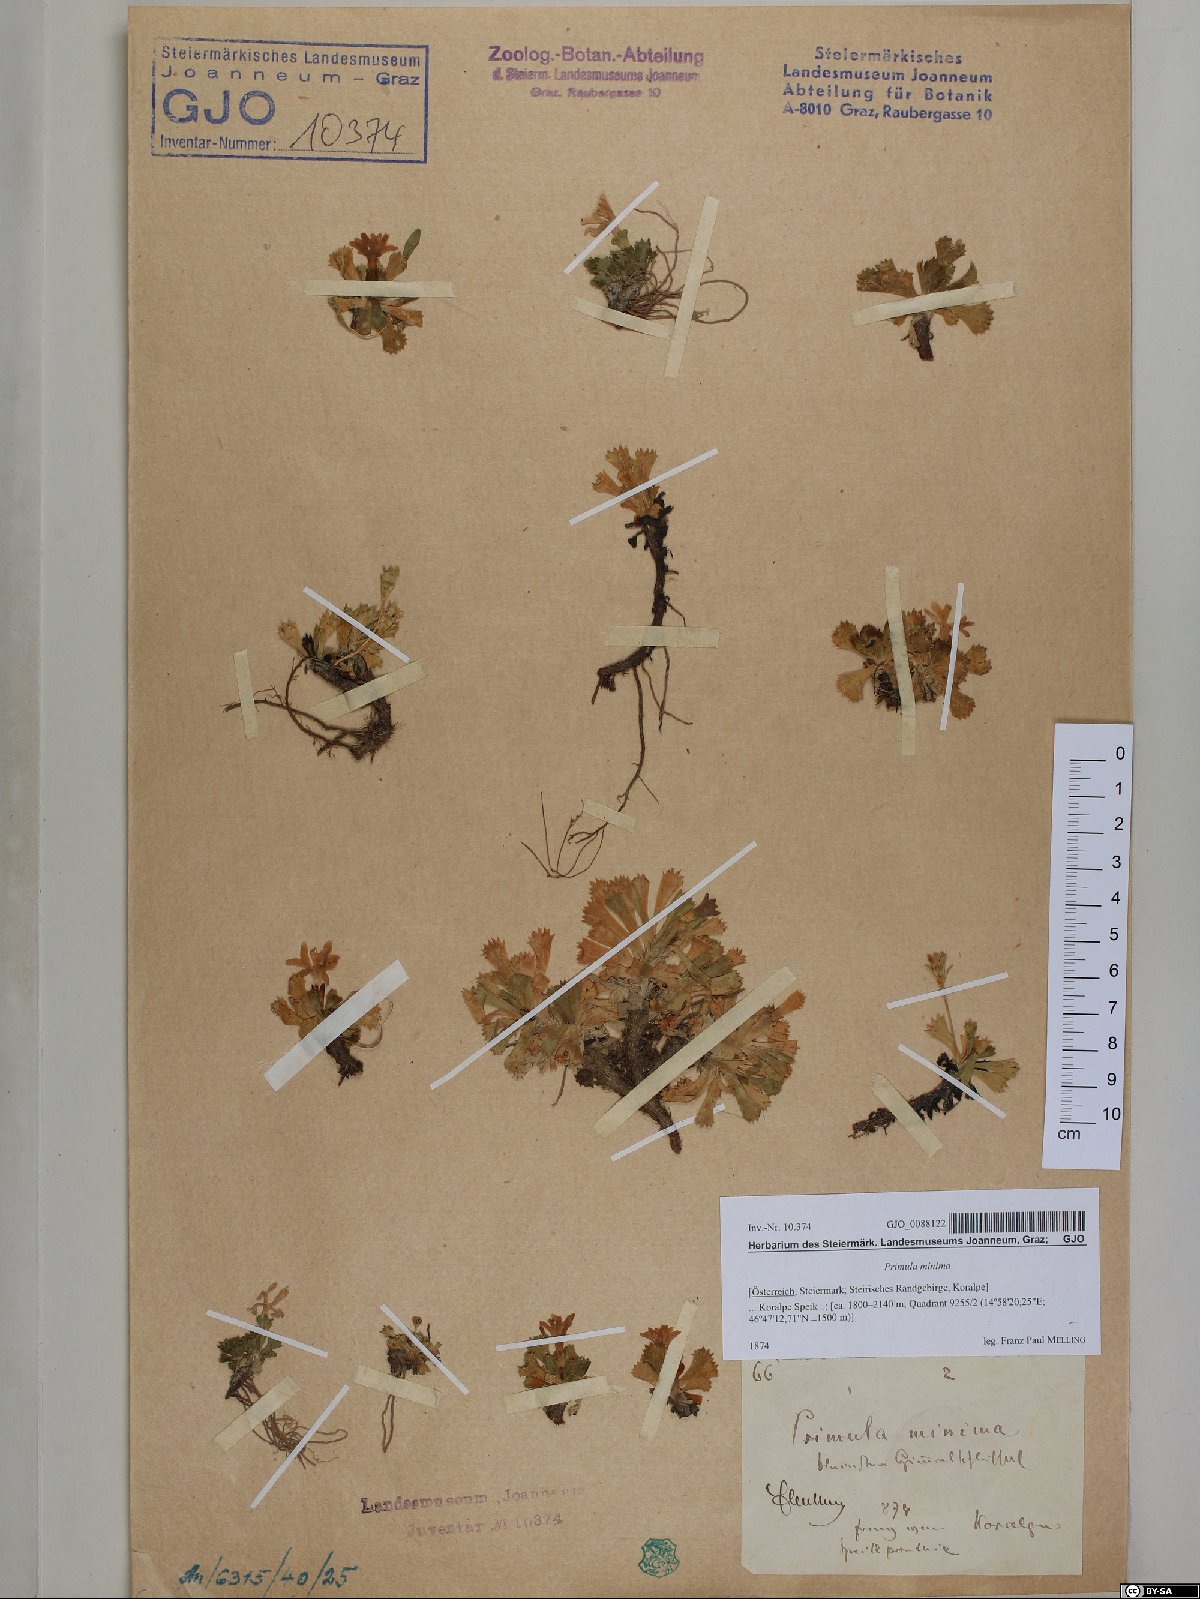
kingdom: Plantae
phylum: Tracheophyta
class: Magnoliopsida
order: Ericales
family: Primulaceae
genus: Primula
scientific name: Primula minima
